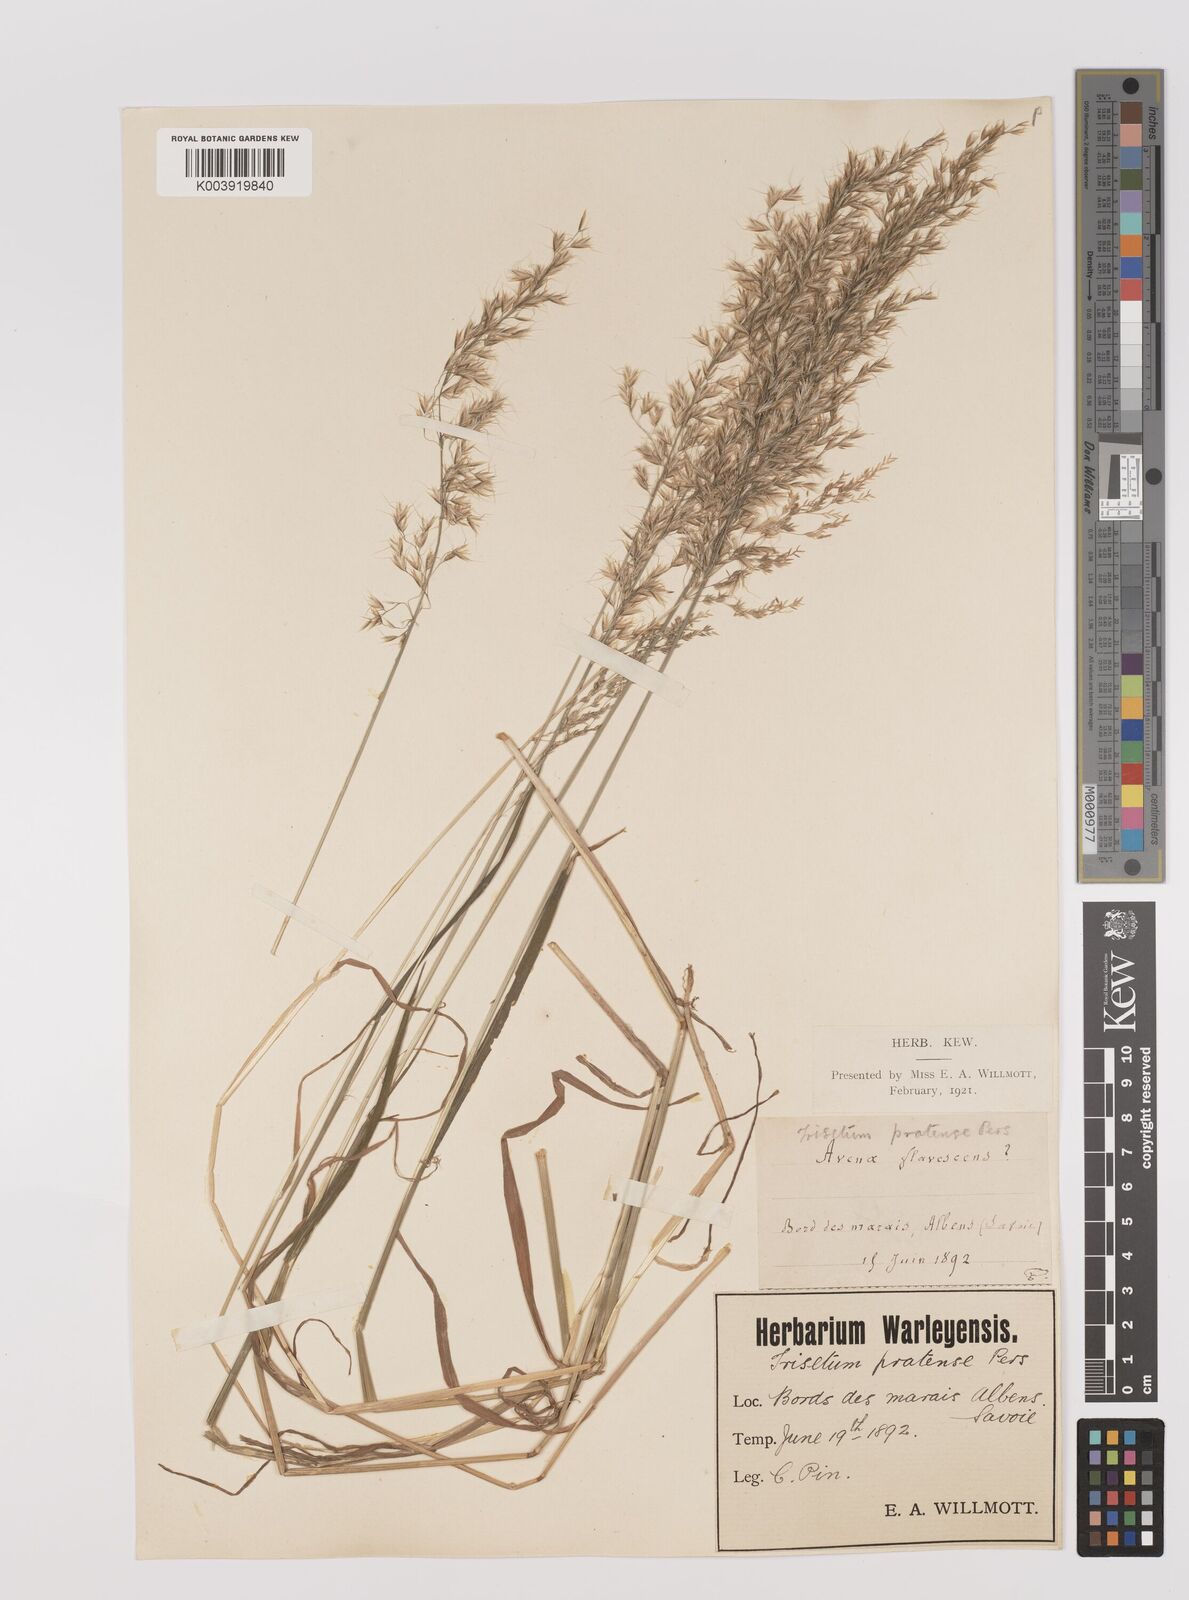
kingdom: Plantae
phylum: Tracheophyta
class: Liliopsida
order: Poales
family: Poaceae
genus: Trisetum
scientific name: Trisetum flavescens
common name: Yellow oat-grass
